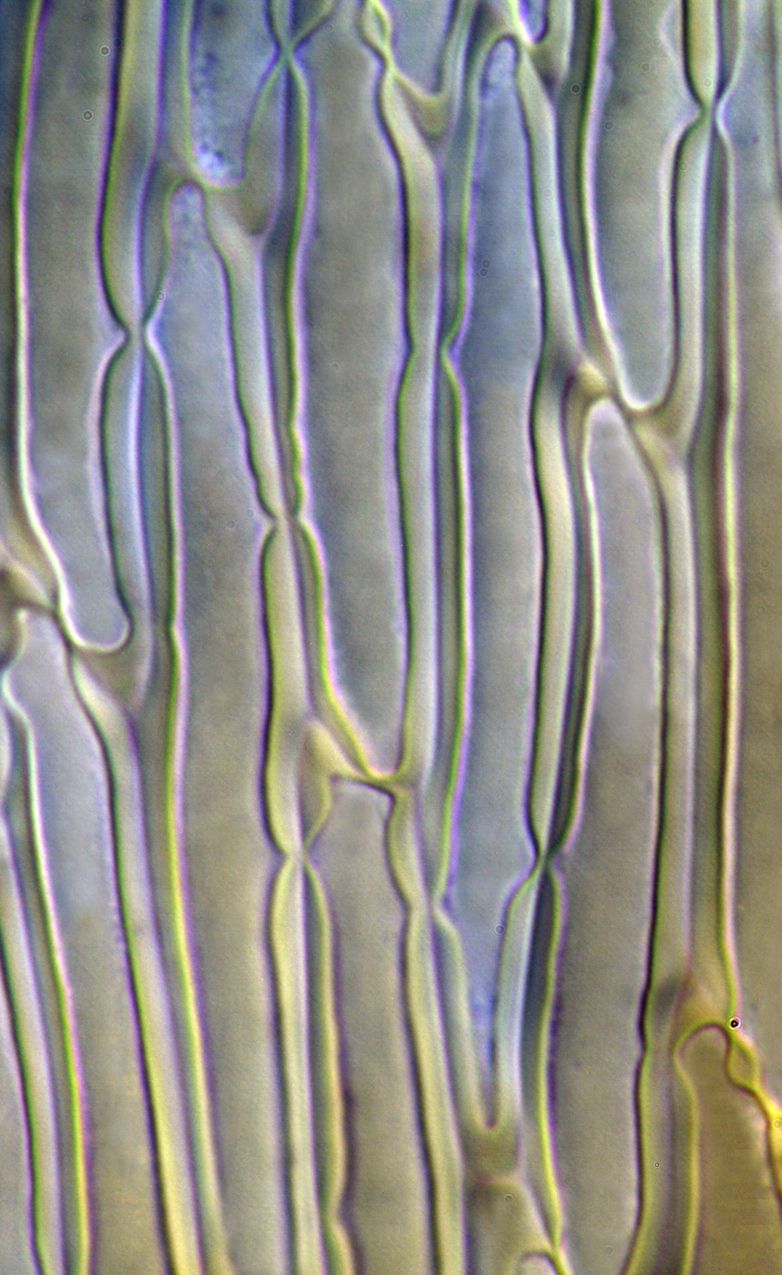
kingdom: Plantae
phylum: Bryophyta
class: Bryopsida
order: Hypnales
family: Plagiotheciaceae
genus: Orthothecium
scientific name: Orthothecium strictum
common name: Shiny erect-capsule moss
